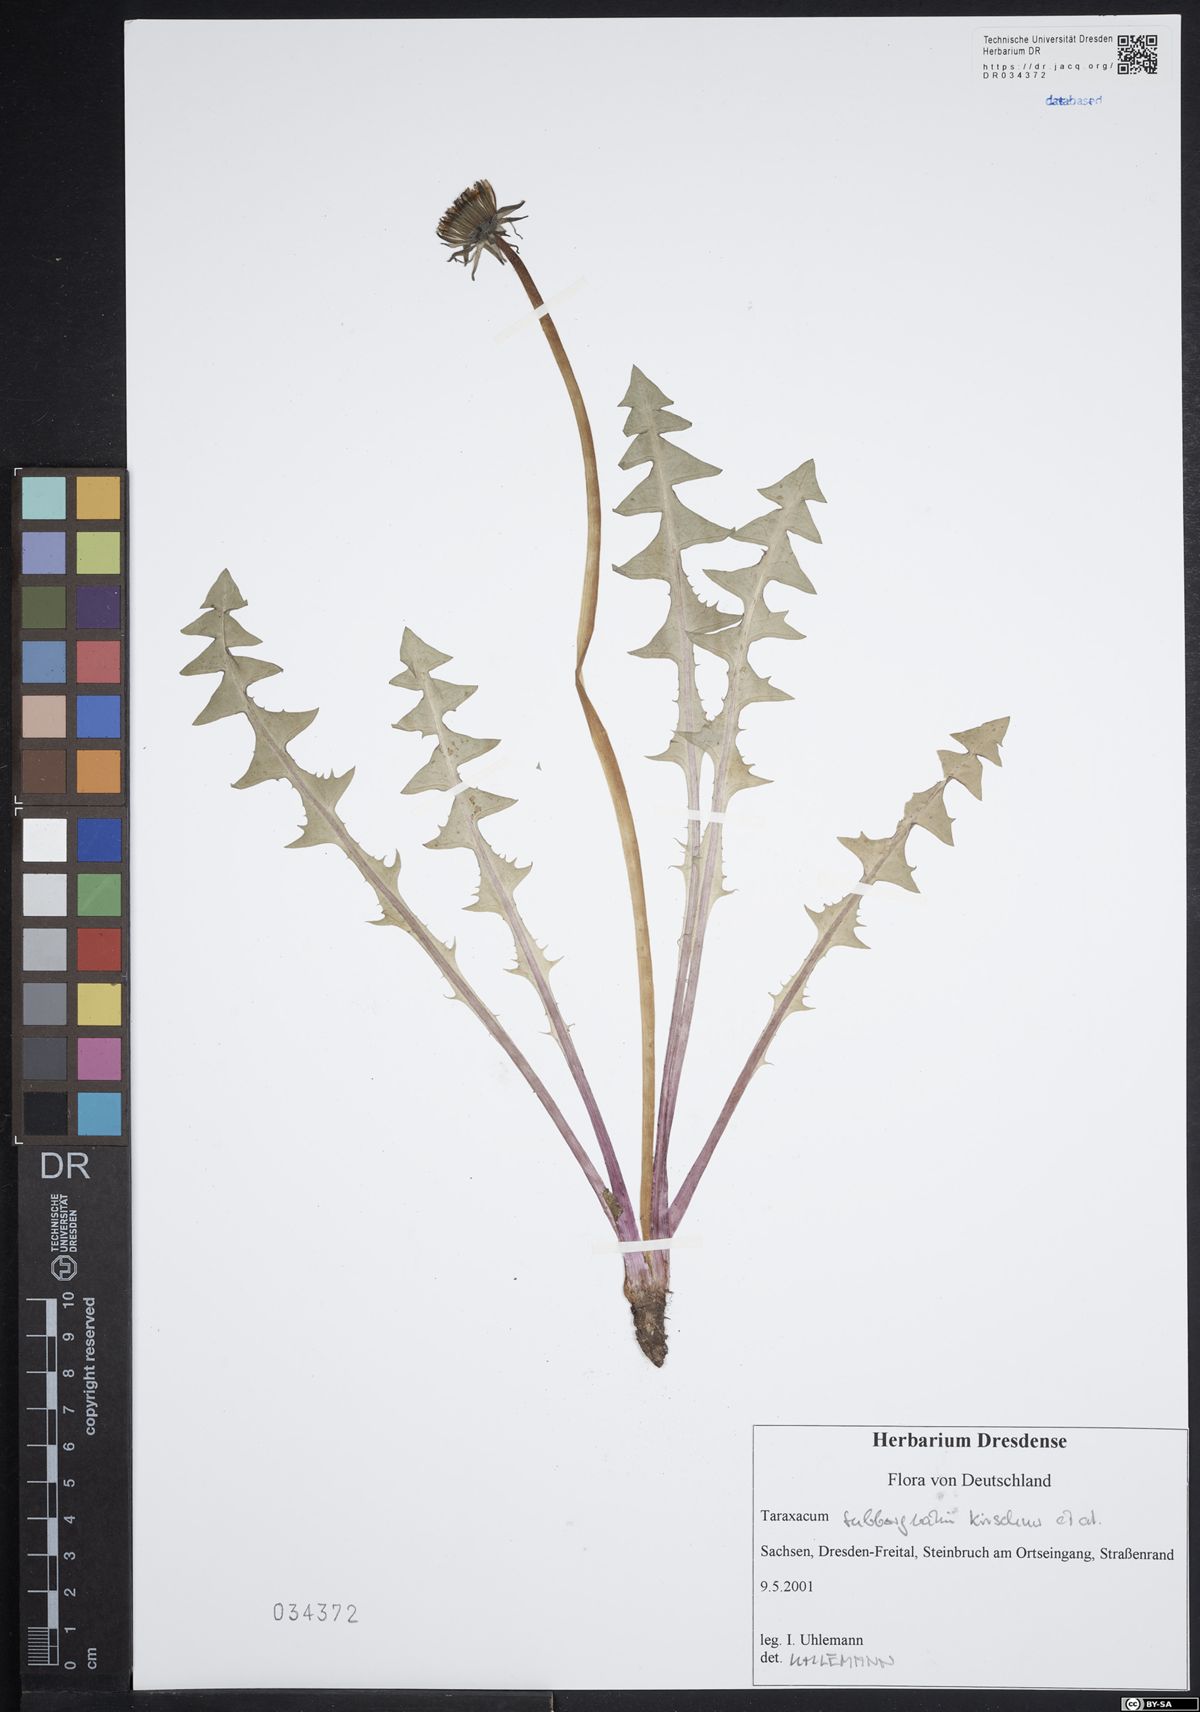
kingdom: Plantae
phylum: Tracheophyta
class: Magnoliopsida
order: Asterales
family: Asteraceae
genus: Taraxacum
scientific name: Taraxacum subborgvallii
